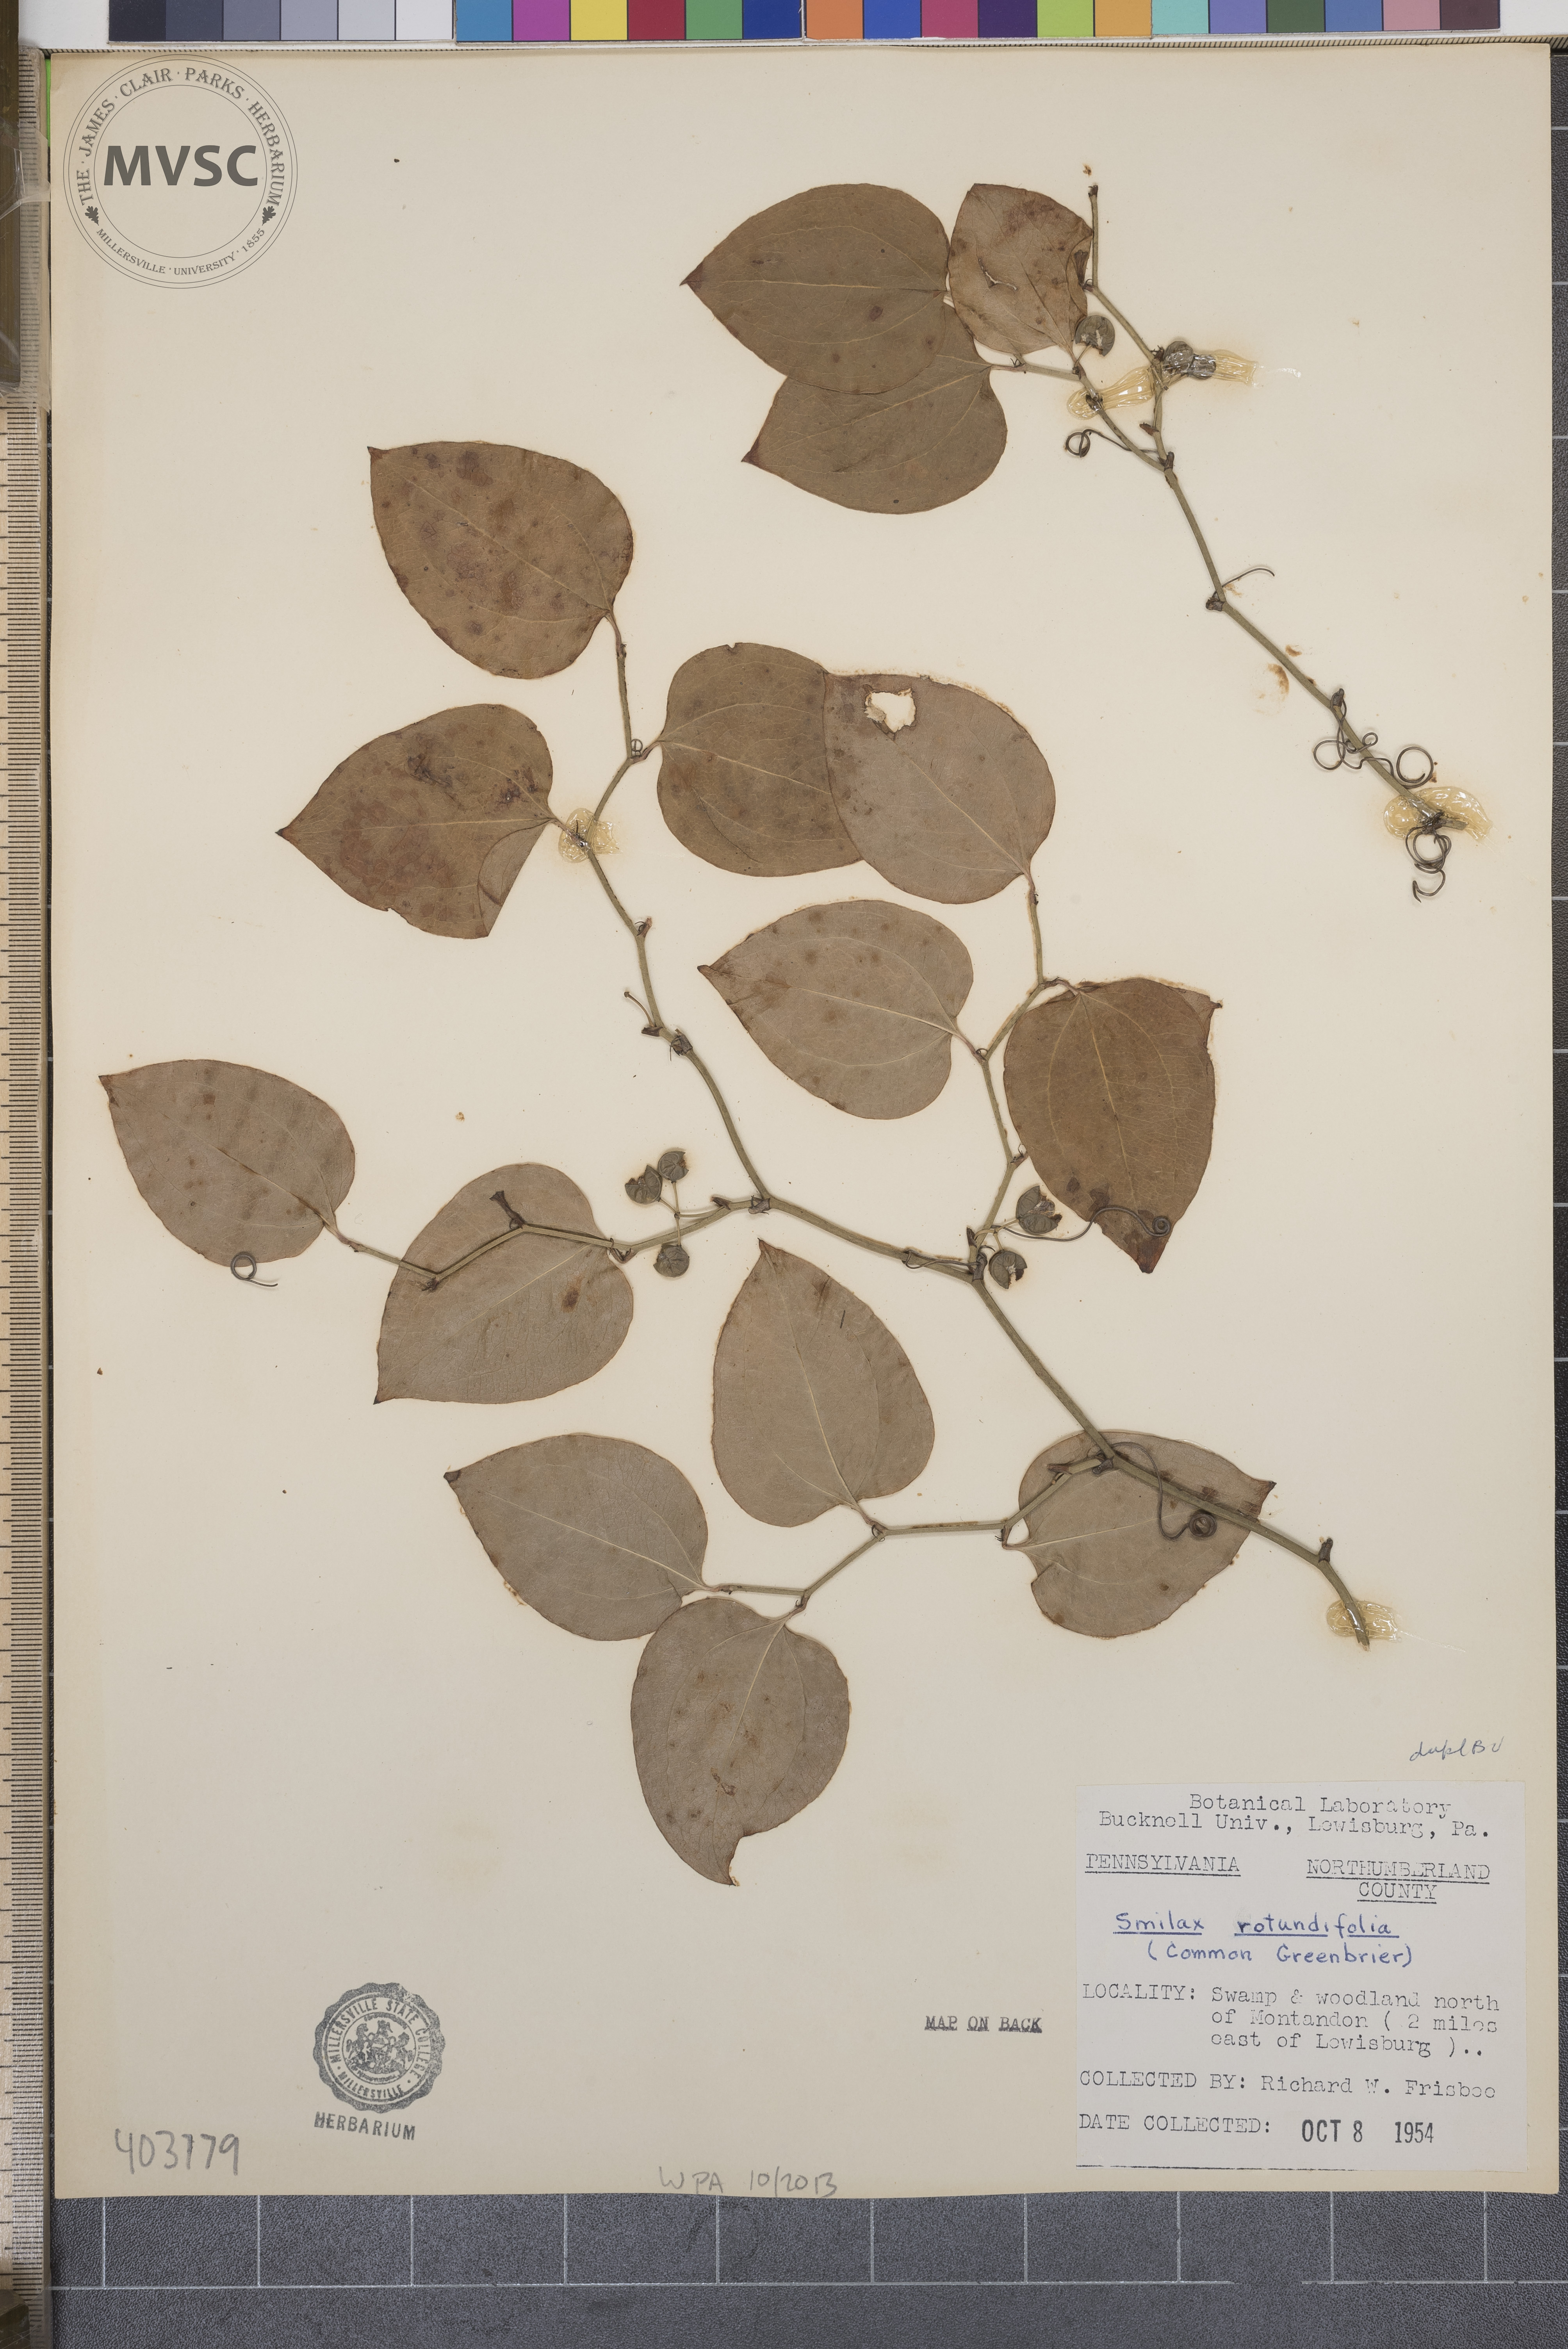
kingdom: Plantae
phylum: Tracheophyta
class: Liliopsida
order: Liliales
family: Smilacaceae
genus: Smilax
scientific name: Smilax rotundifolia
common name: Common Greenbriar
